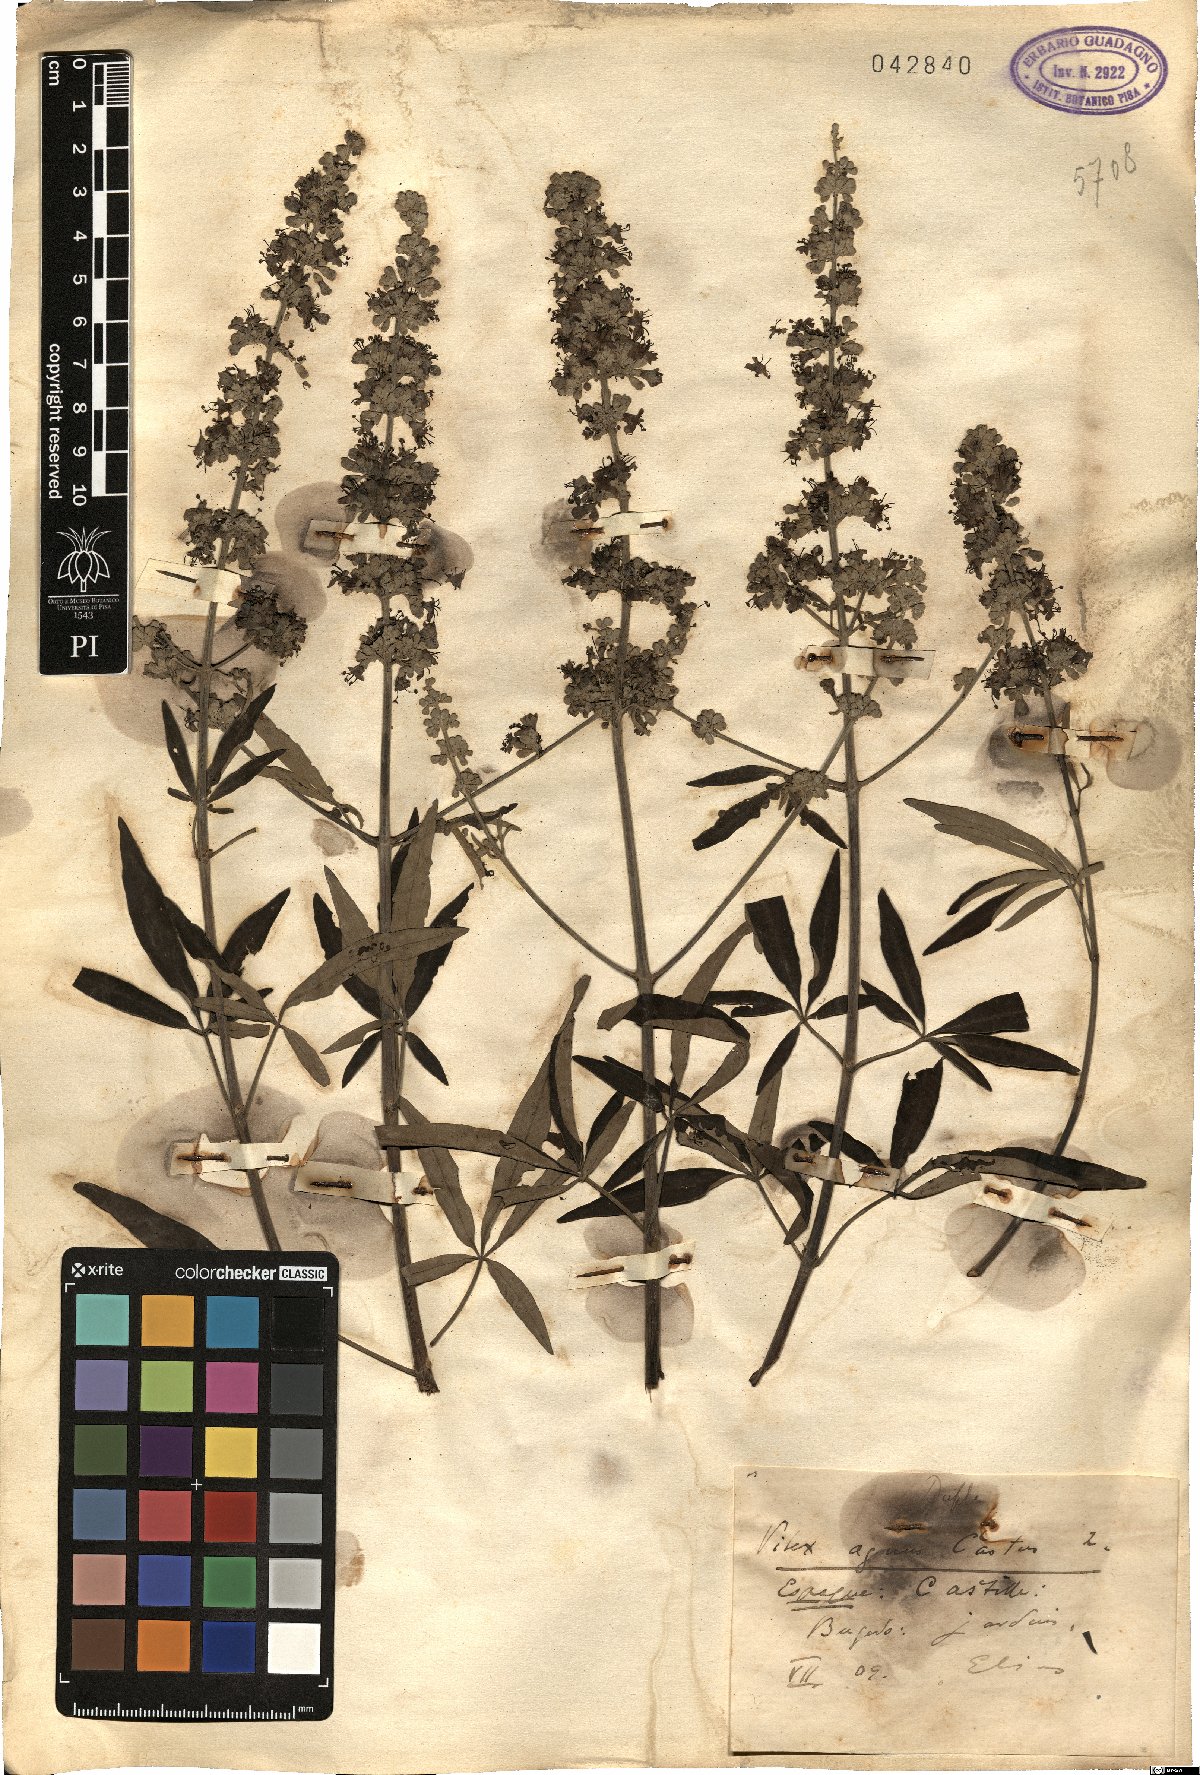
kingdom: Plantae
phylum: Tracheophyta
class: Magnoliopsida
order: Lamiales
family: Lamiaceae
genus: Vitex
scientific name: Vitex agnus-castus
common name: Chasteberry
